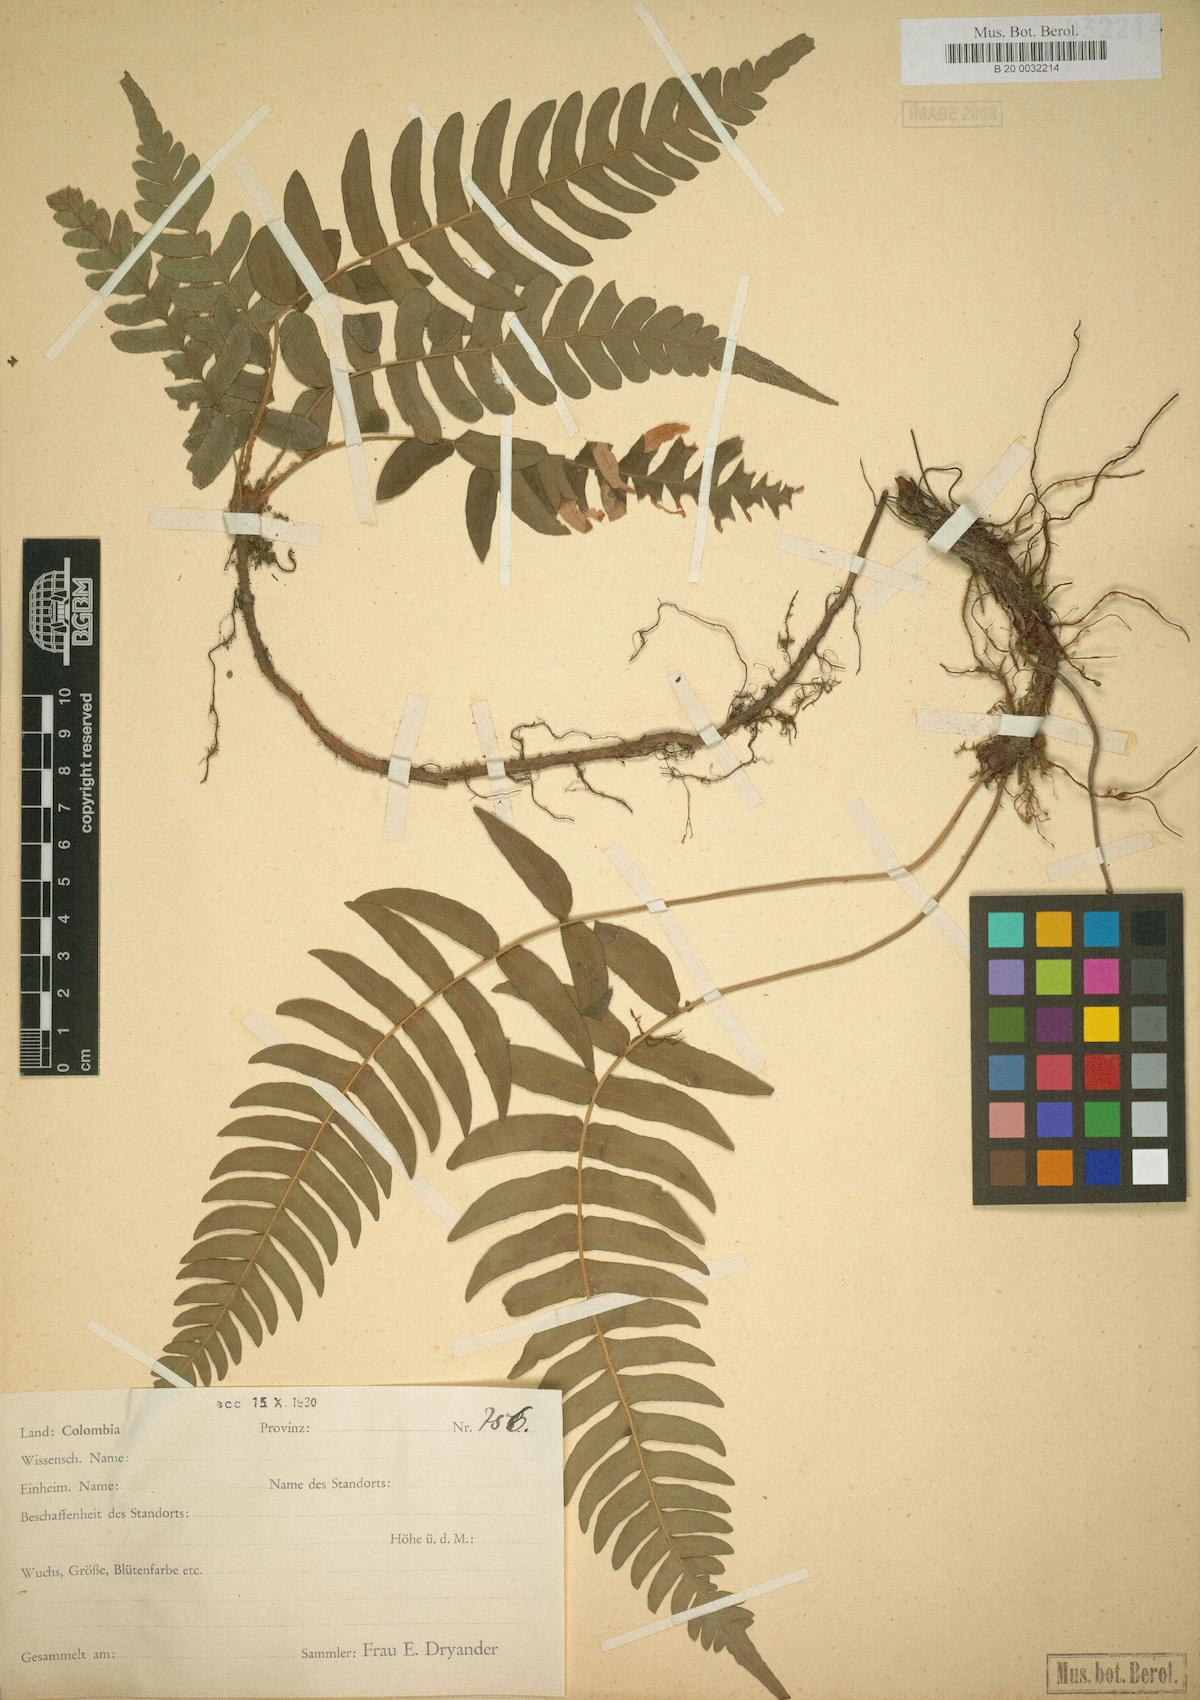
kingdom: Plantae
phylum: Tracheophyta
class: Polypodiopsida
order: Polypodiales
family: Blechnaceae
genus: Blechnum
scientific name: Blechnum occidentale
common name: Hammock fern
